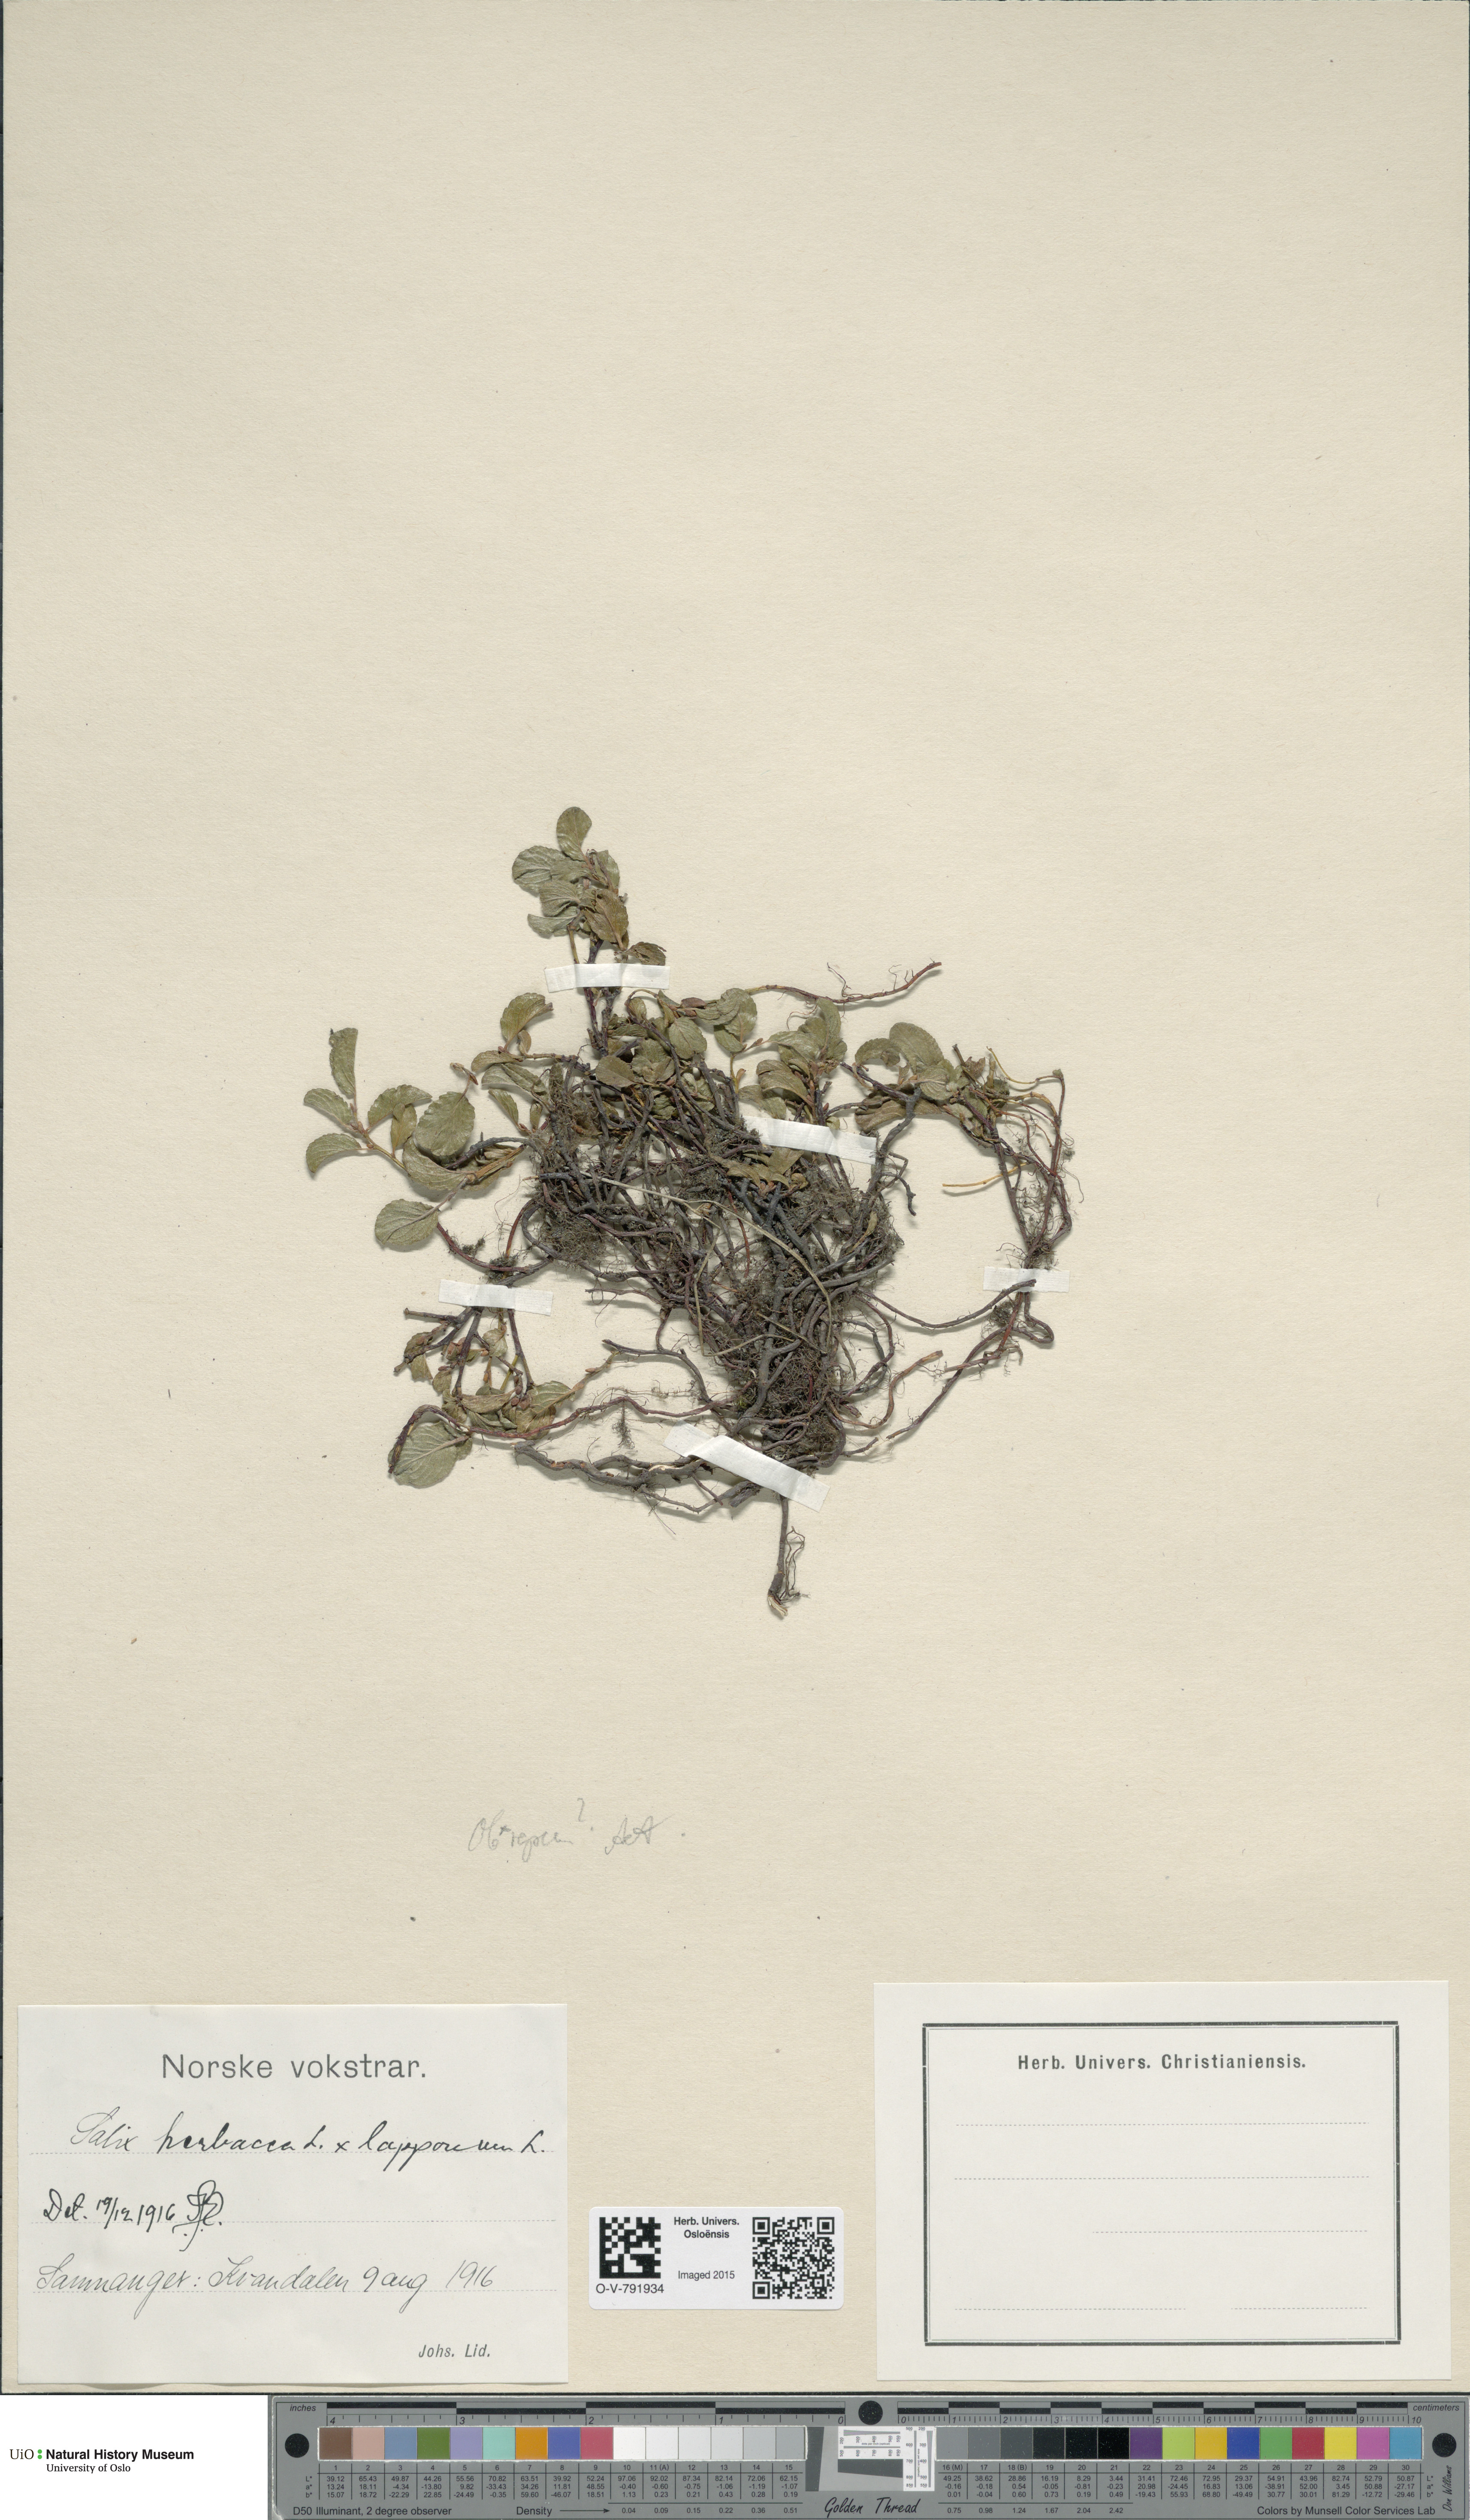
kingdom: Plantae
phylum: Tracheophyta
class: Magnoliopsida
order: Malpighiales
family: Salicaceae
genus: Salix
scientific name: Salix
